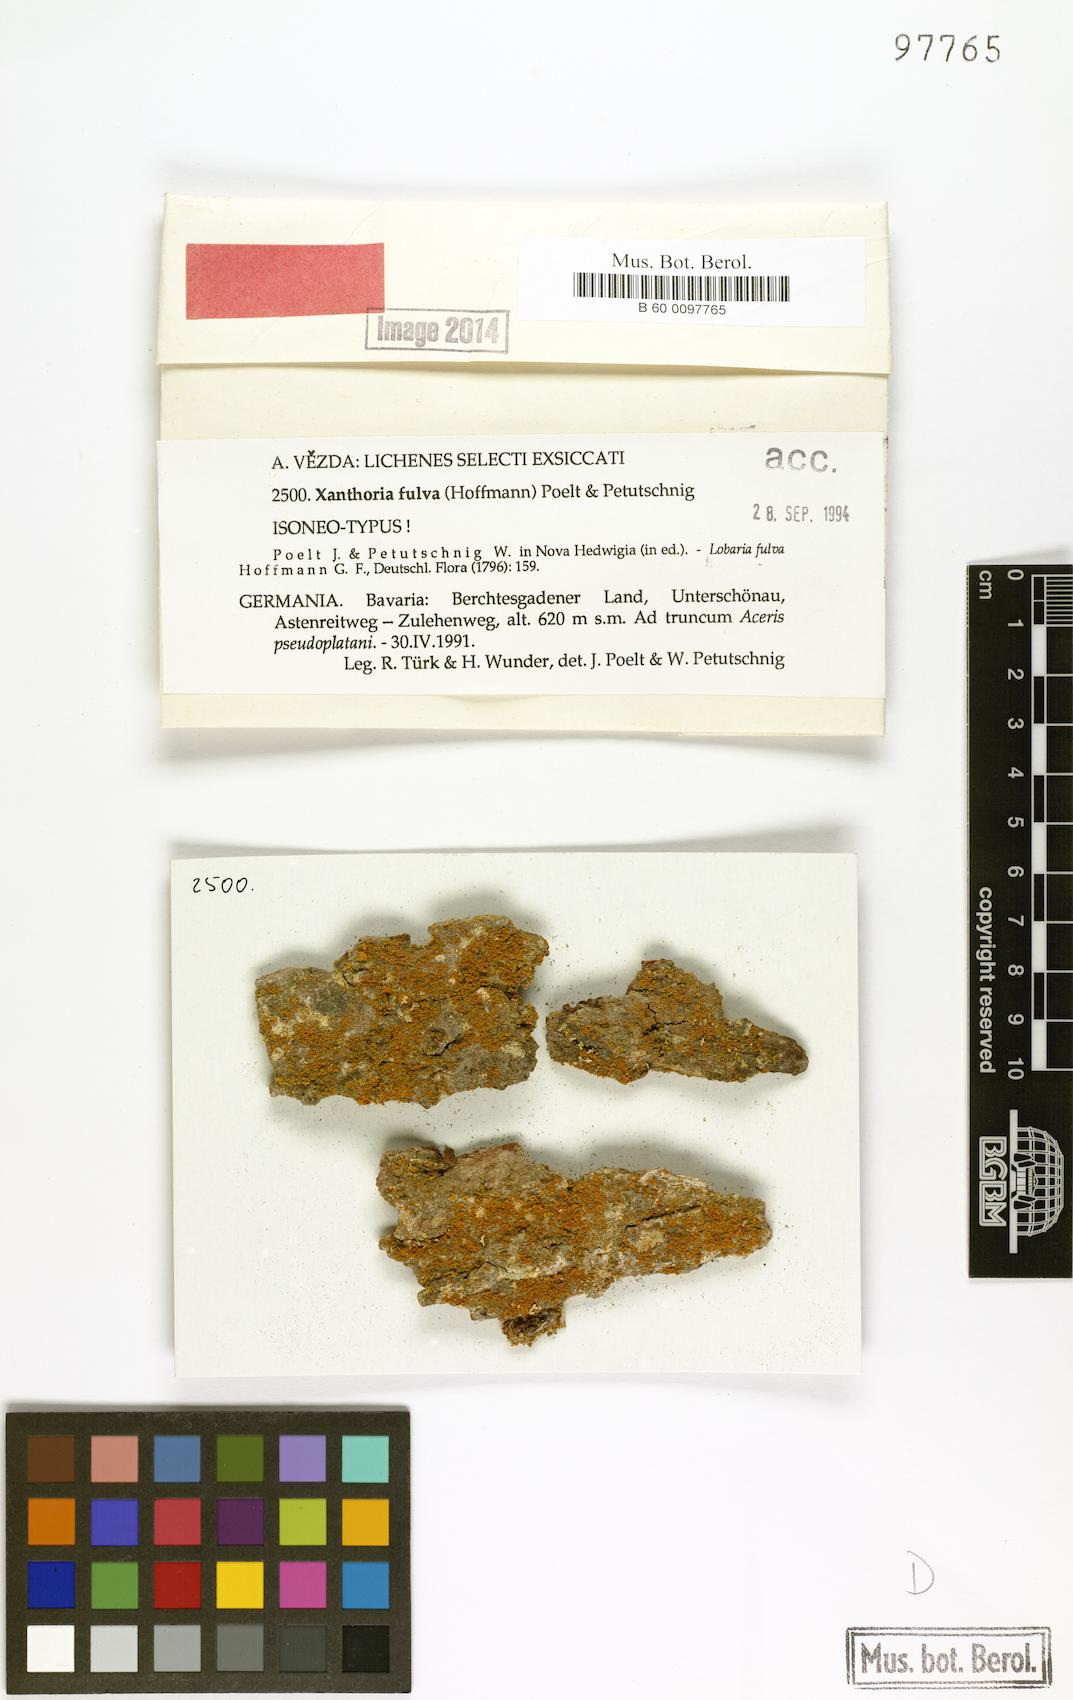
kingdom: Fungi
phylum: Ascomycota
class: Lecanoromycetes
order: Teloschistales
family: Teloschistaceae
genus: Gallowayella
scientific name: Gallowayella fulva
